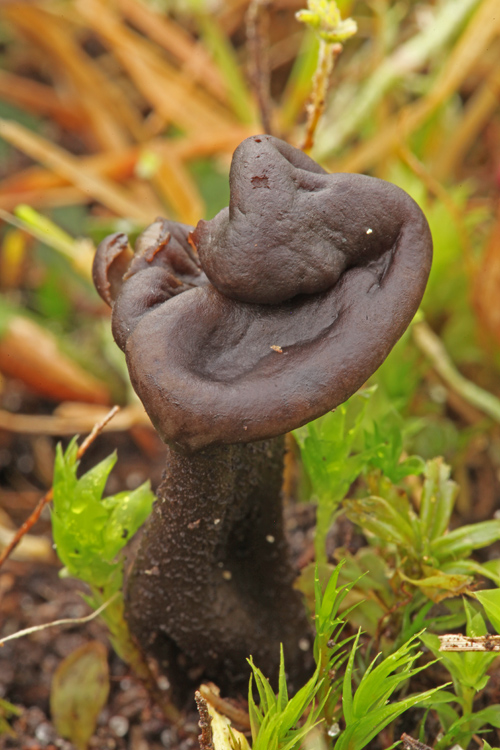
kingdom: Fungi
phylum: Ascomycota
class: Geoglossomycetes
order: Geoglossales
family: Geoglossaceae
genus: Geoglossum
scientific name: Geoglossum atropurpureum
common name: purpursort farvetunge
